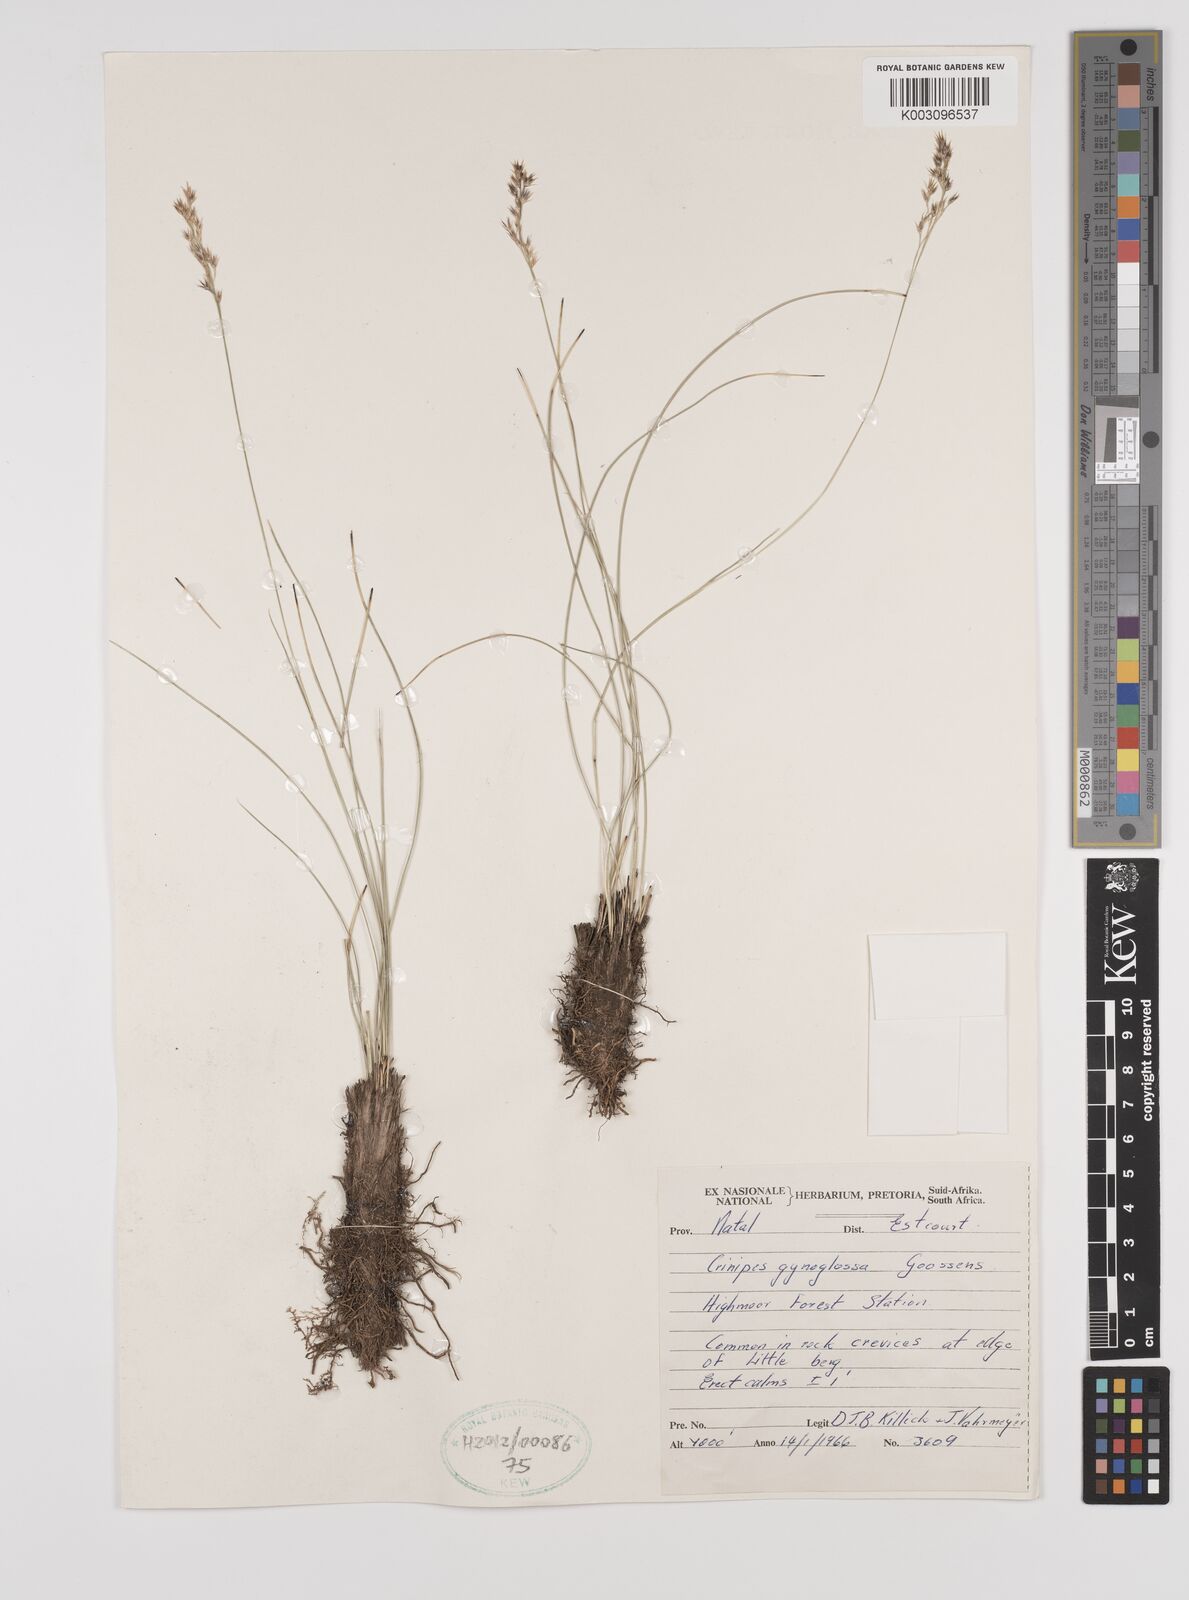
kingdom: Plantae
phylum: Tracheophyta
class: Liliopsida
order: Poales
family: Poaceae
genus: Styppeiochloa
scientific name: Styppeiochloa gynoglossa
